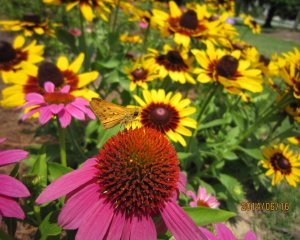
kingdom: Animalia
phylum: Arthropoda
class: Insecta
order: Lepidoptera
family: Hesperiidae
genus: Hylephila
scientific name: Hylephila phyleus
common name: Fiery Skipper
